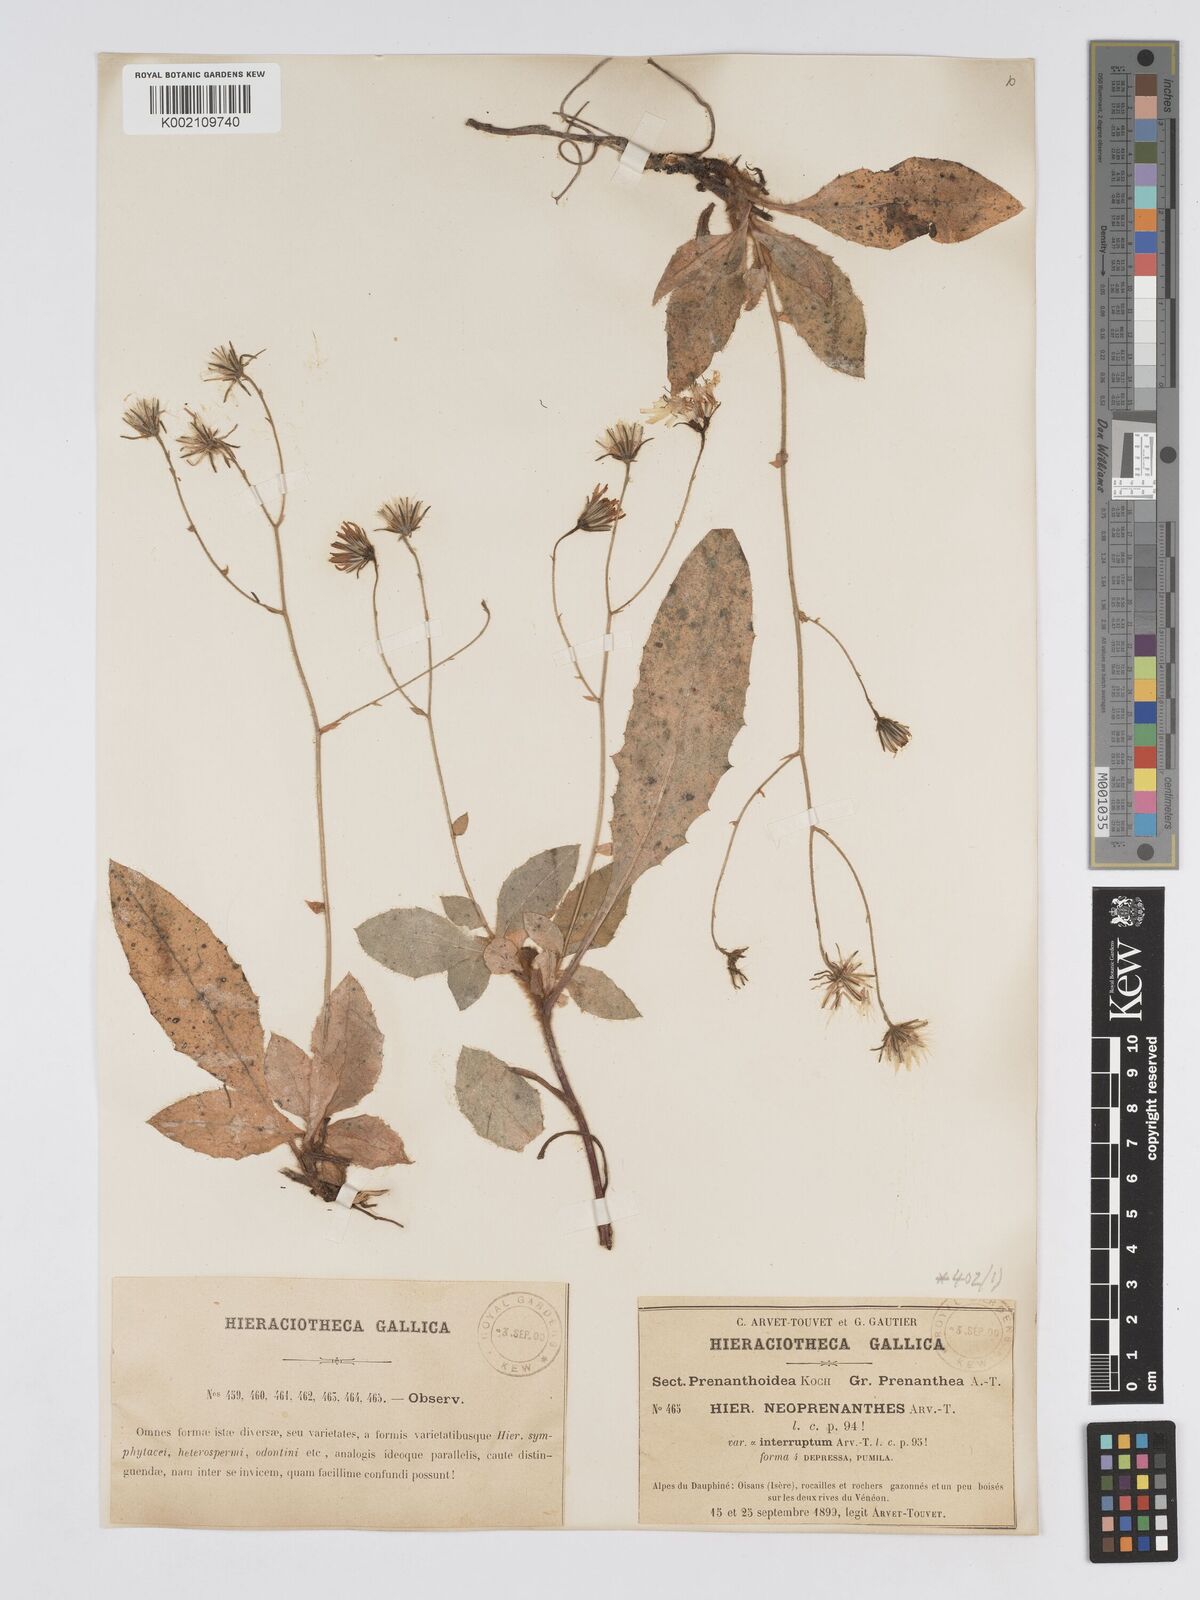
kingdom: Plantae
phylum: Tracheophyta
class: Magnoliopsida
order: Asterales
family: Asteraceae
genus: Hieracium
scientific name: Hieracium symphytaceum
